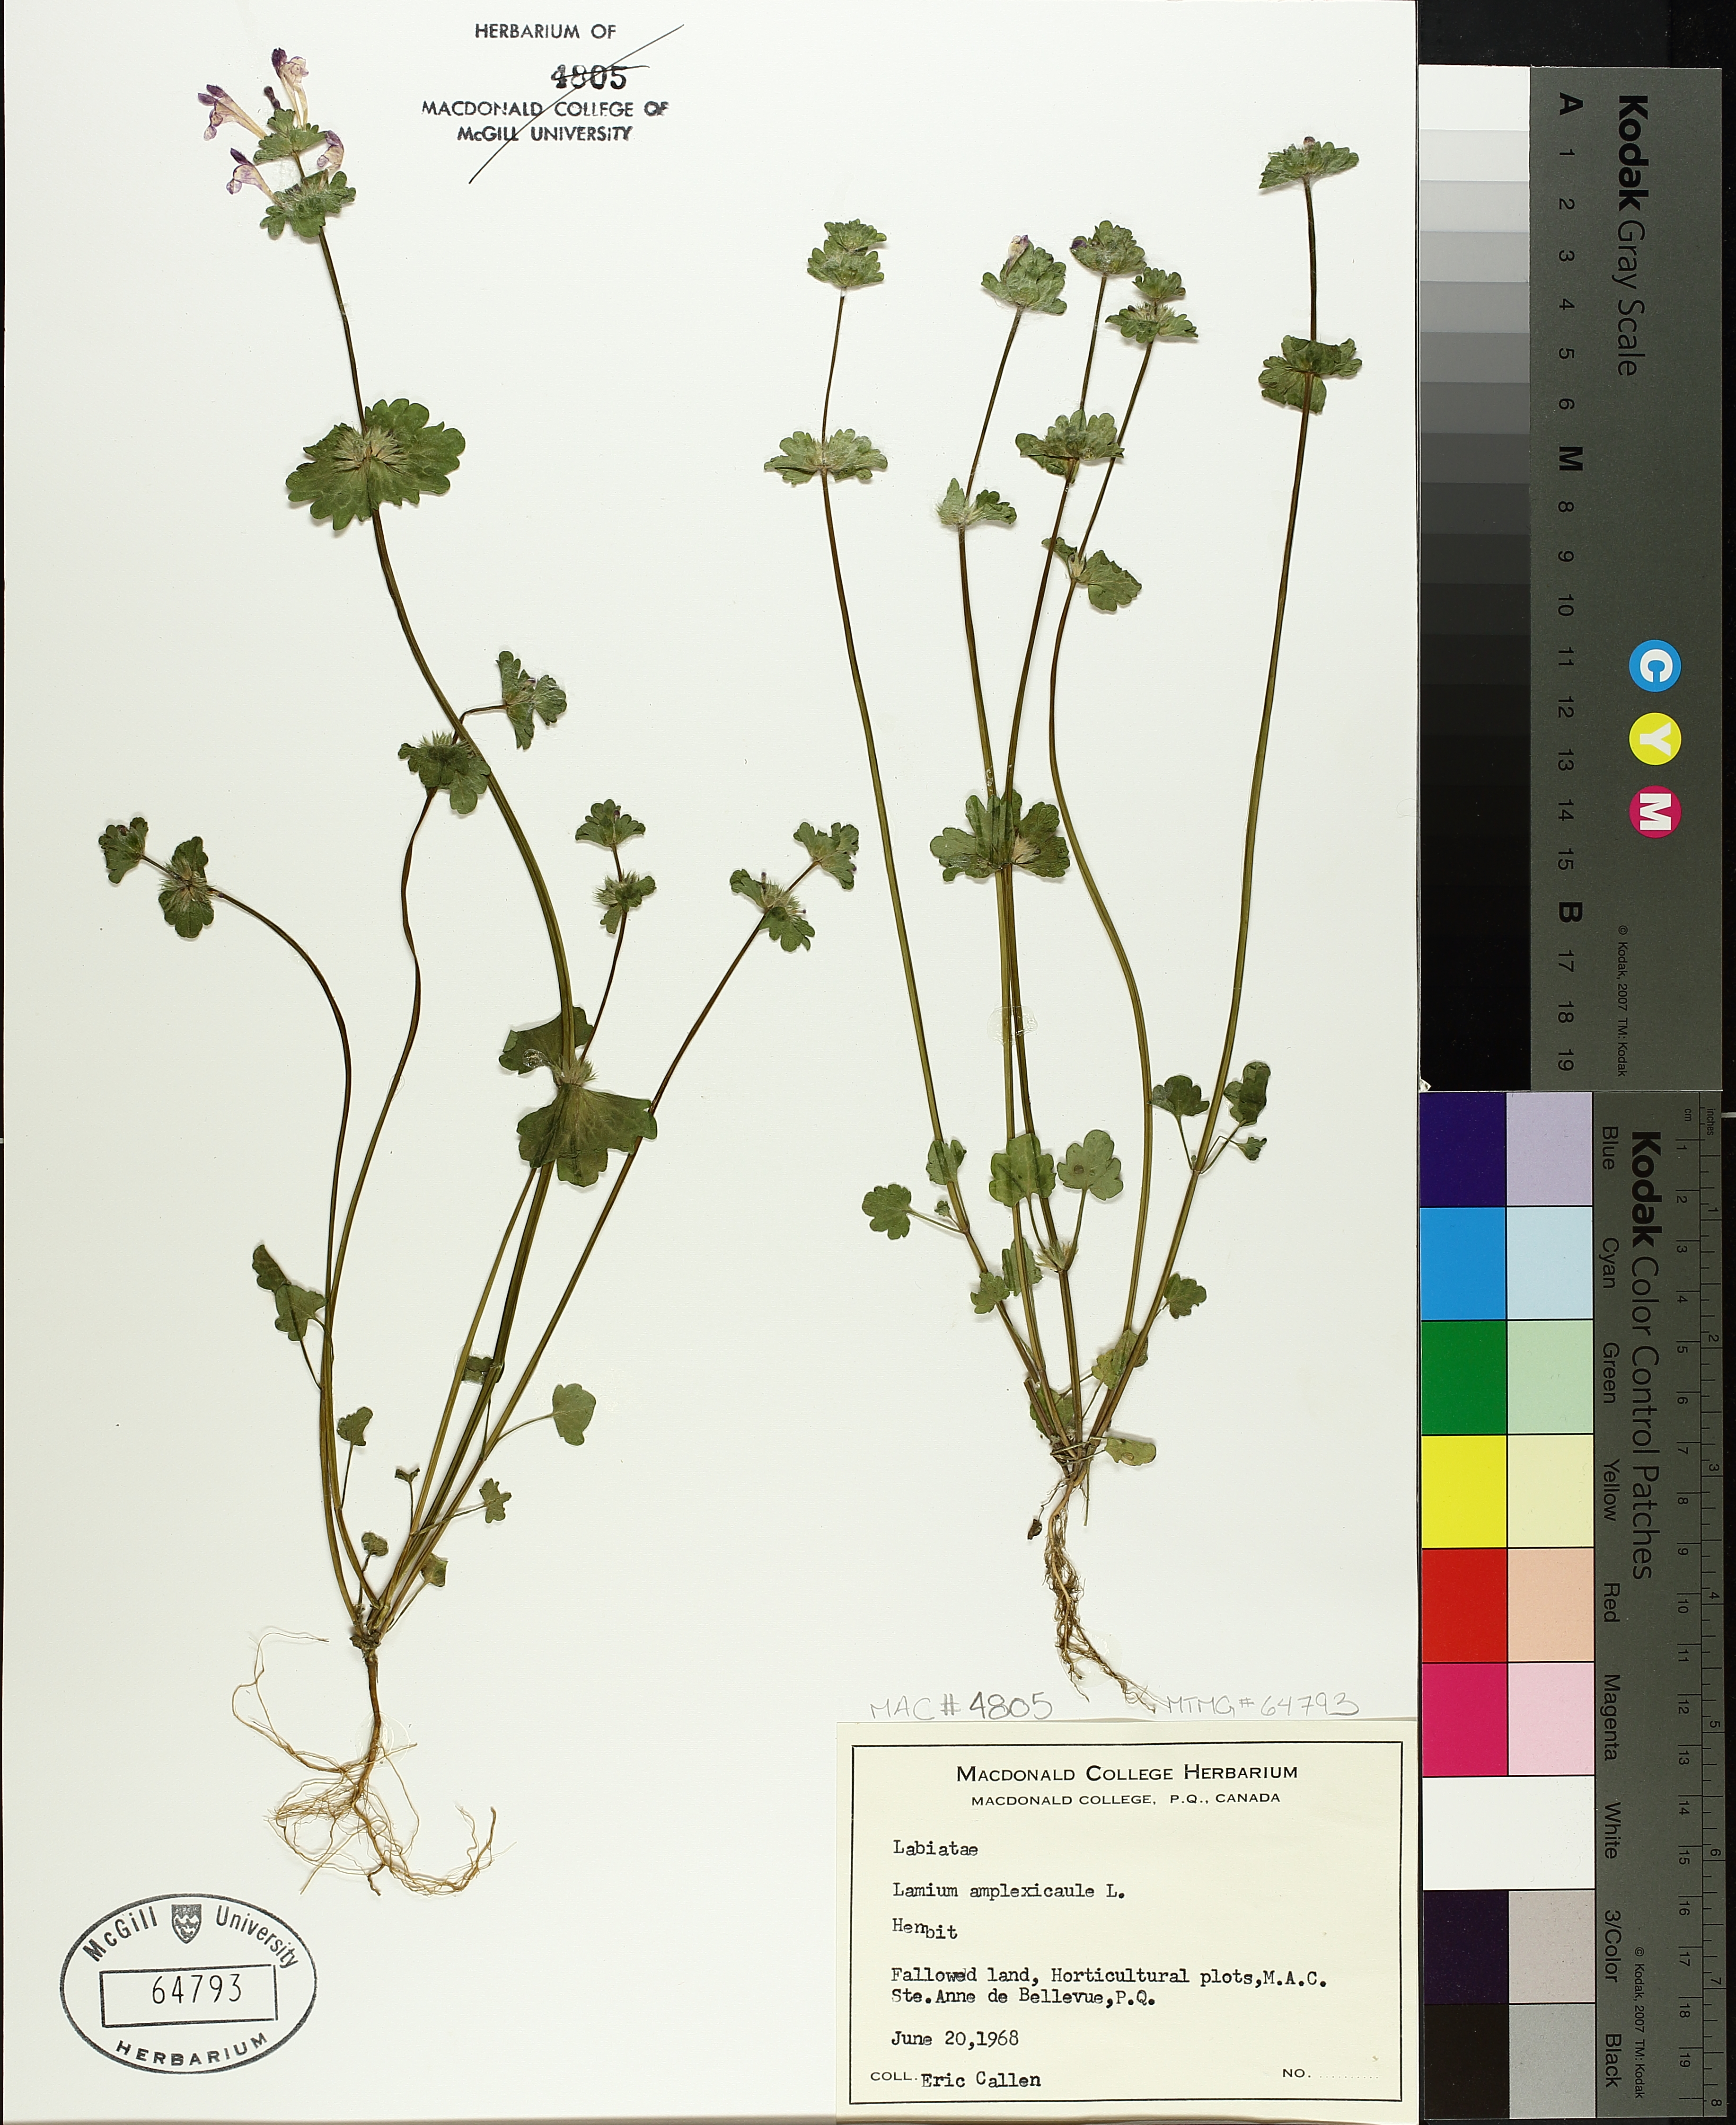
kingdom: Plantae
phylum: Tracheophyta
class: Magnoliopsida
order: Lamiales
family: Lamiaceae
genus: Lamium
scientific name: Lamium amplexicaule
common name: Henbit dead-nettle
